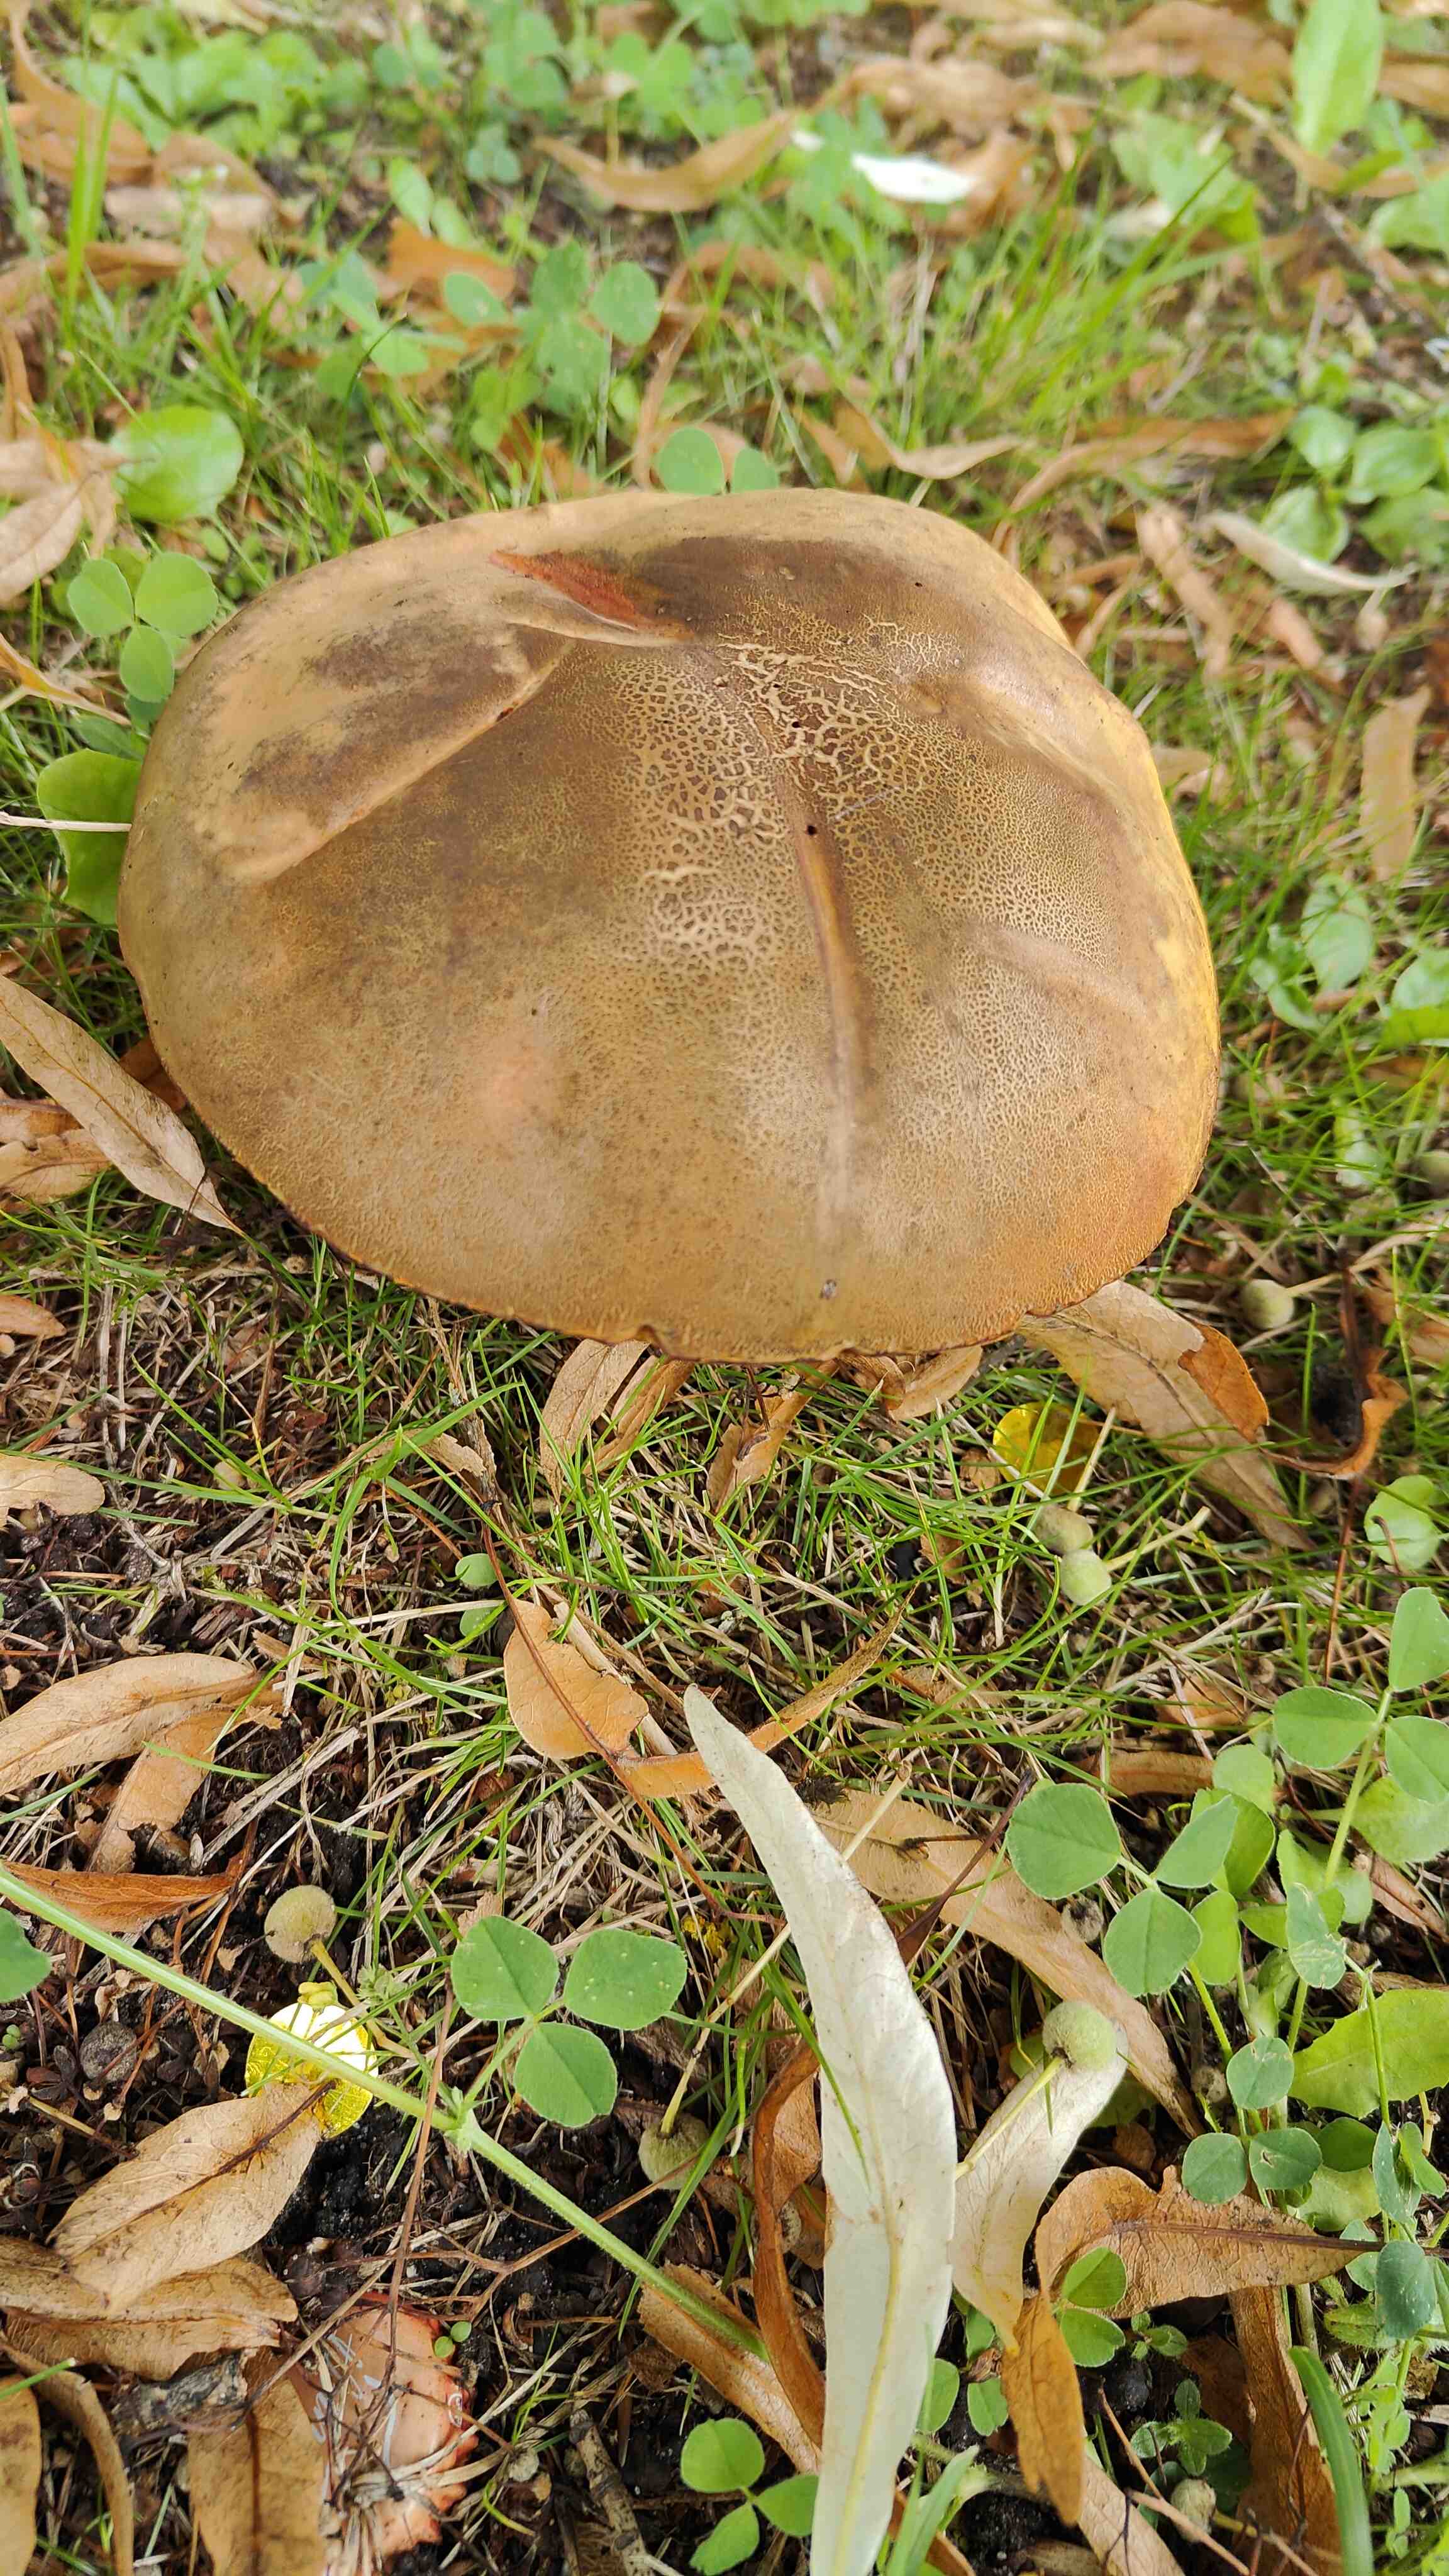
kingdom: Fungi
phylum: Basidiomycota
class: Agaricomycetes
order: Boletales
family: Boletaceae
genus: Suillellus
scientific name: Suillellus luridus
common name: netstokket indigorørhat
